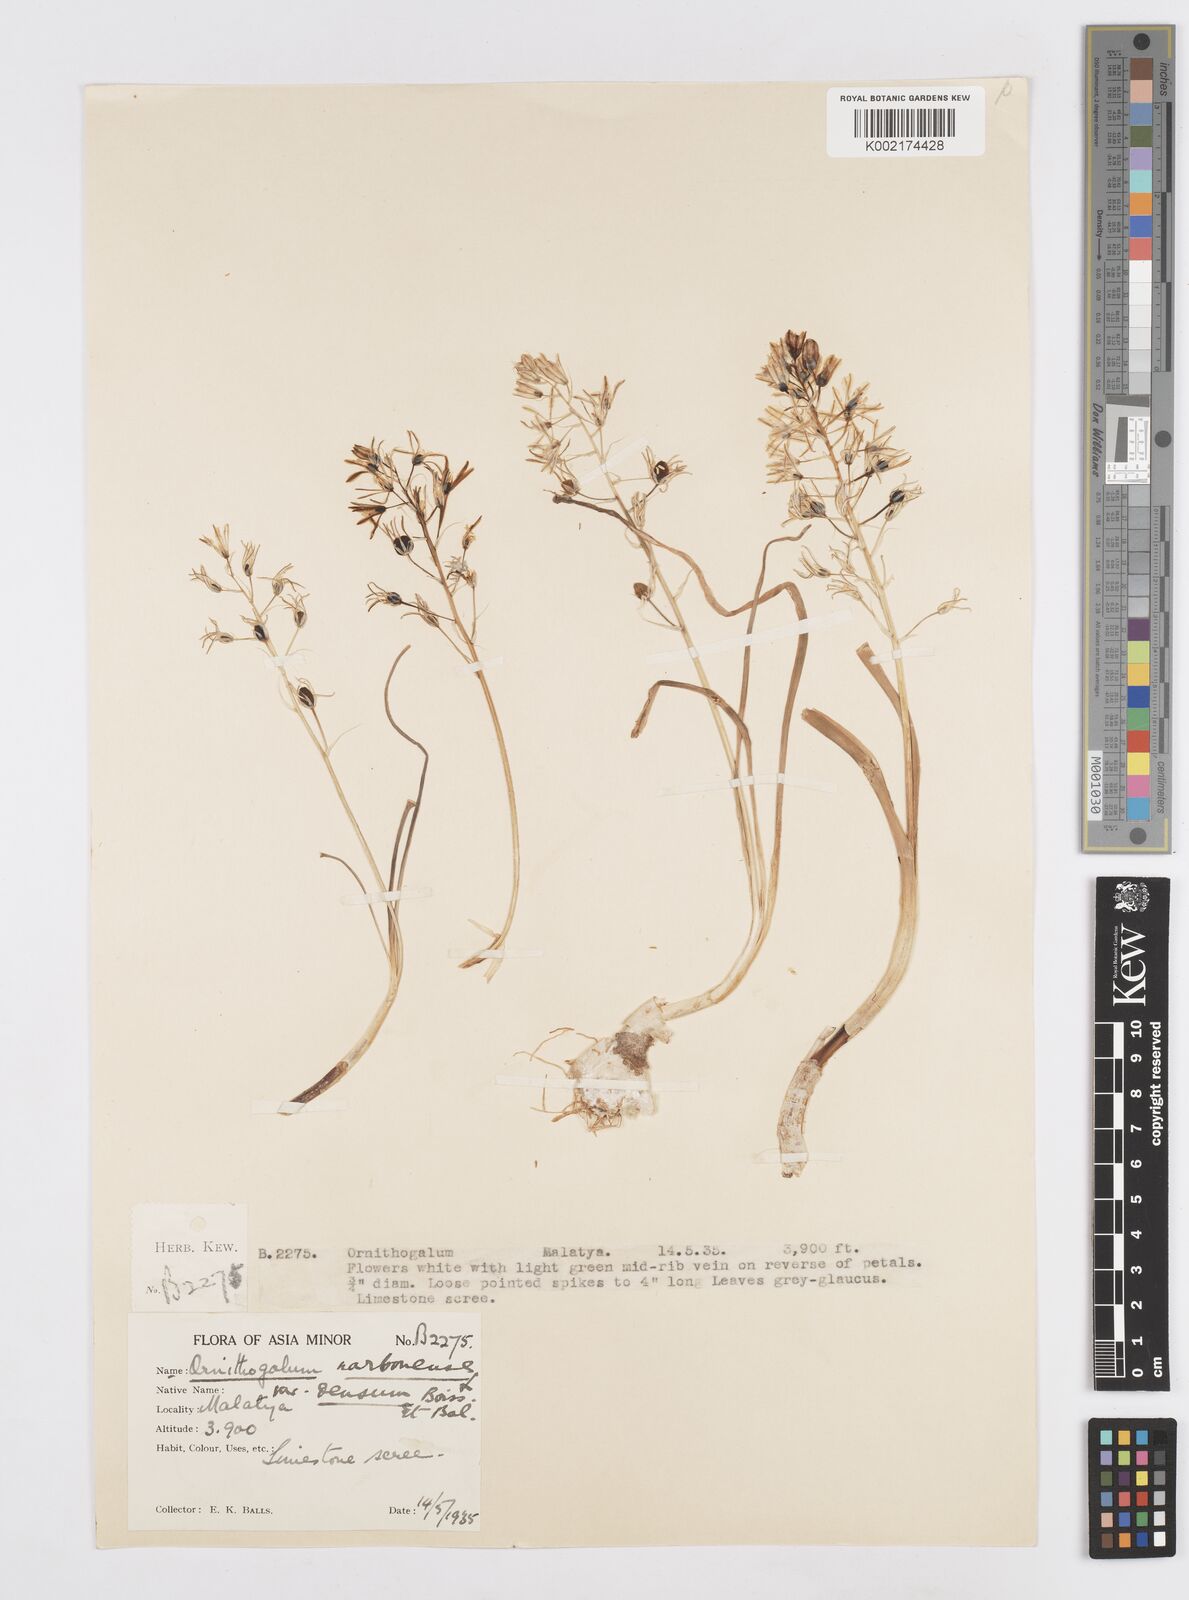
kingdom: Plantae
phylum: Tracheophyta
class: Liliopsida
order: Asparagales
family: Asparagaceae
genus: Ornithogalum
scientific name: Ornithogalum narbonense
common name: Bath-asparagus
